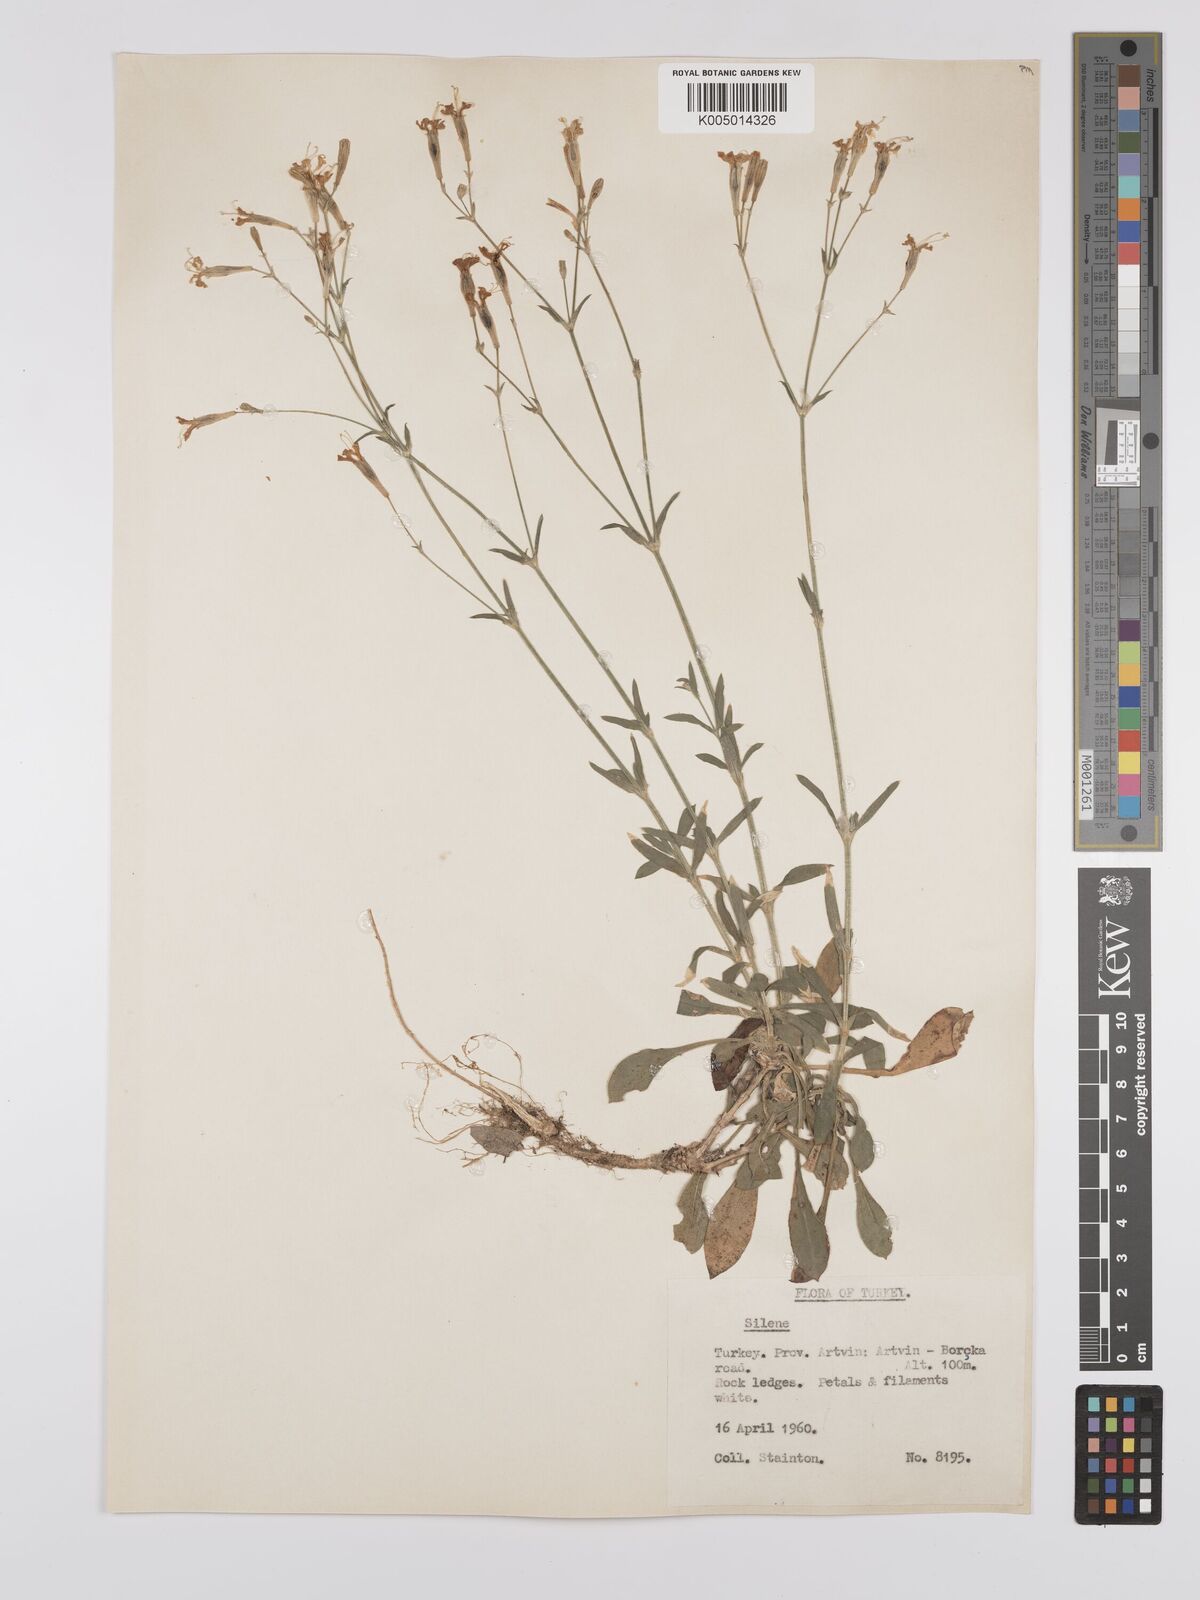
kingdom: Plantae
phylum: Tracheophyta
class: Magnoliopsida
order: Caryophyllales
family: Caryophyllaceae
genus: Silene
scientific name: Silene
